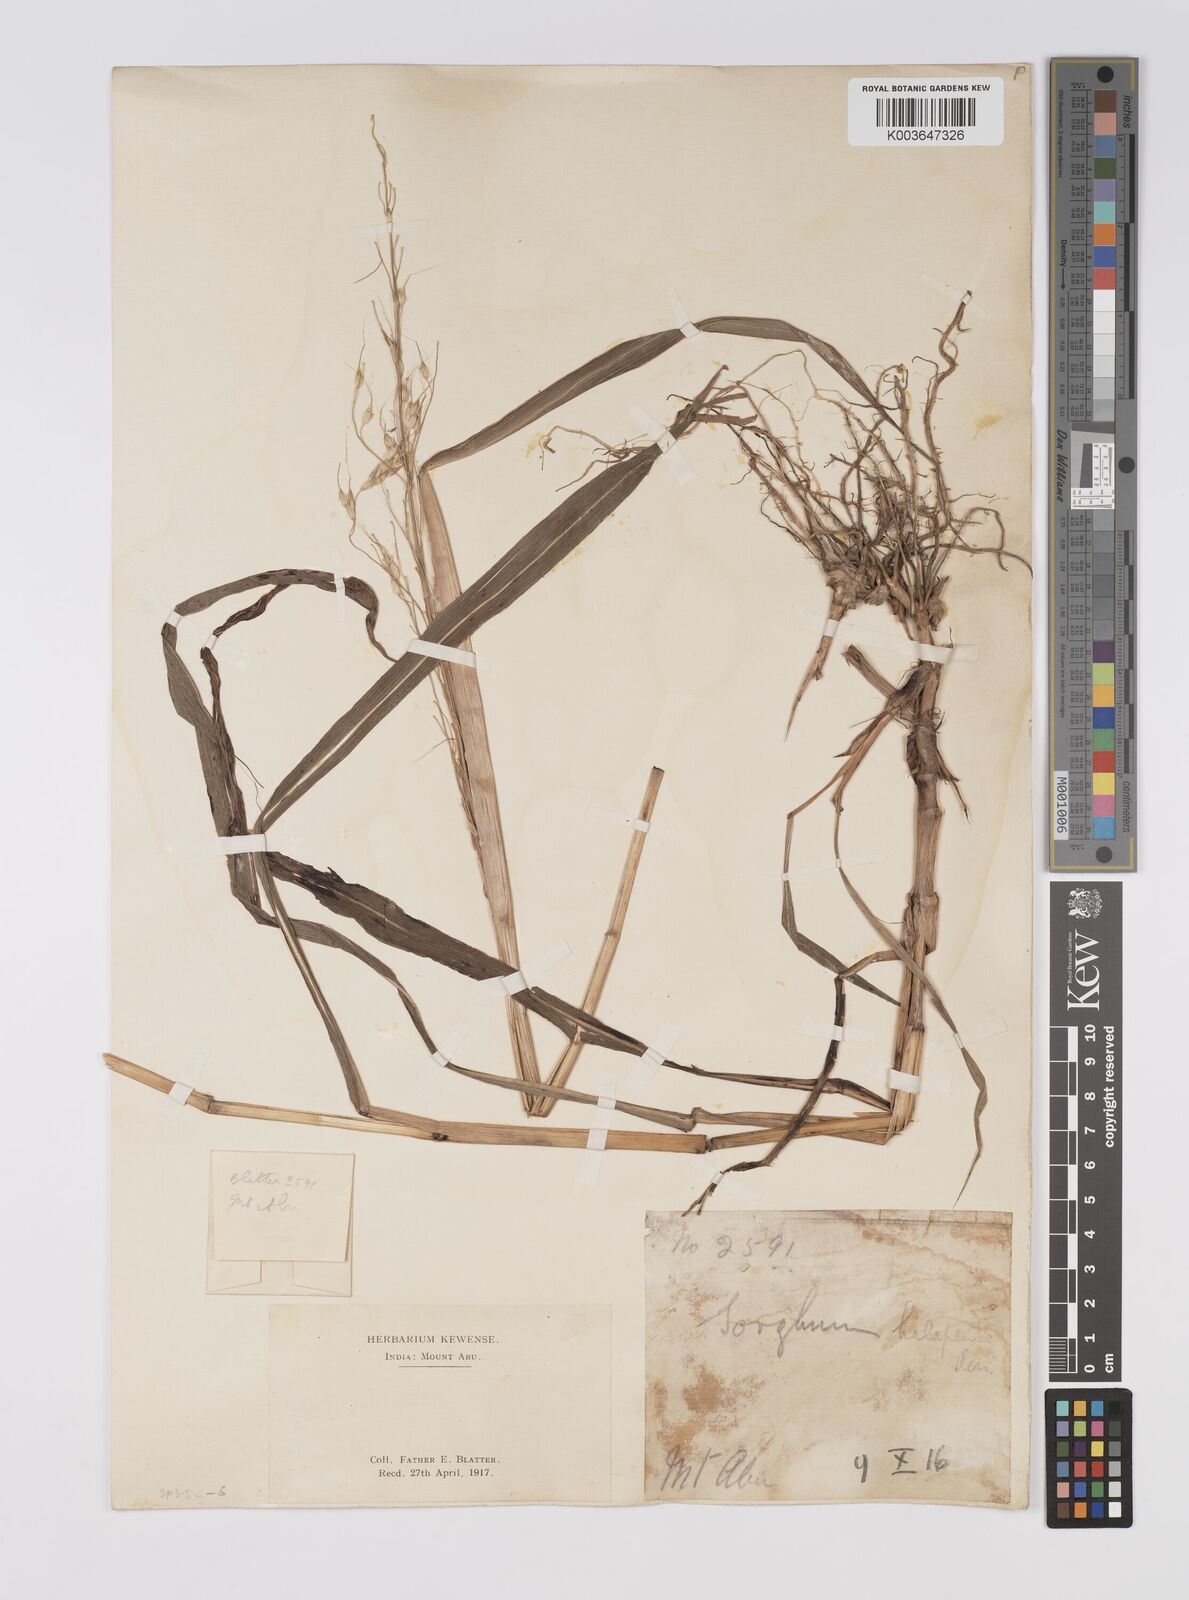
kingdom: Plantae
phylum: Tracheophyta
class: Liliopsida
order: Poales
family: Poaceae
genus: Sorghum
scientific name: Sorghum controversum
